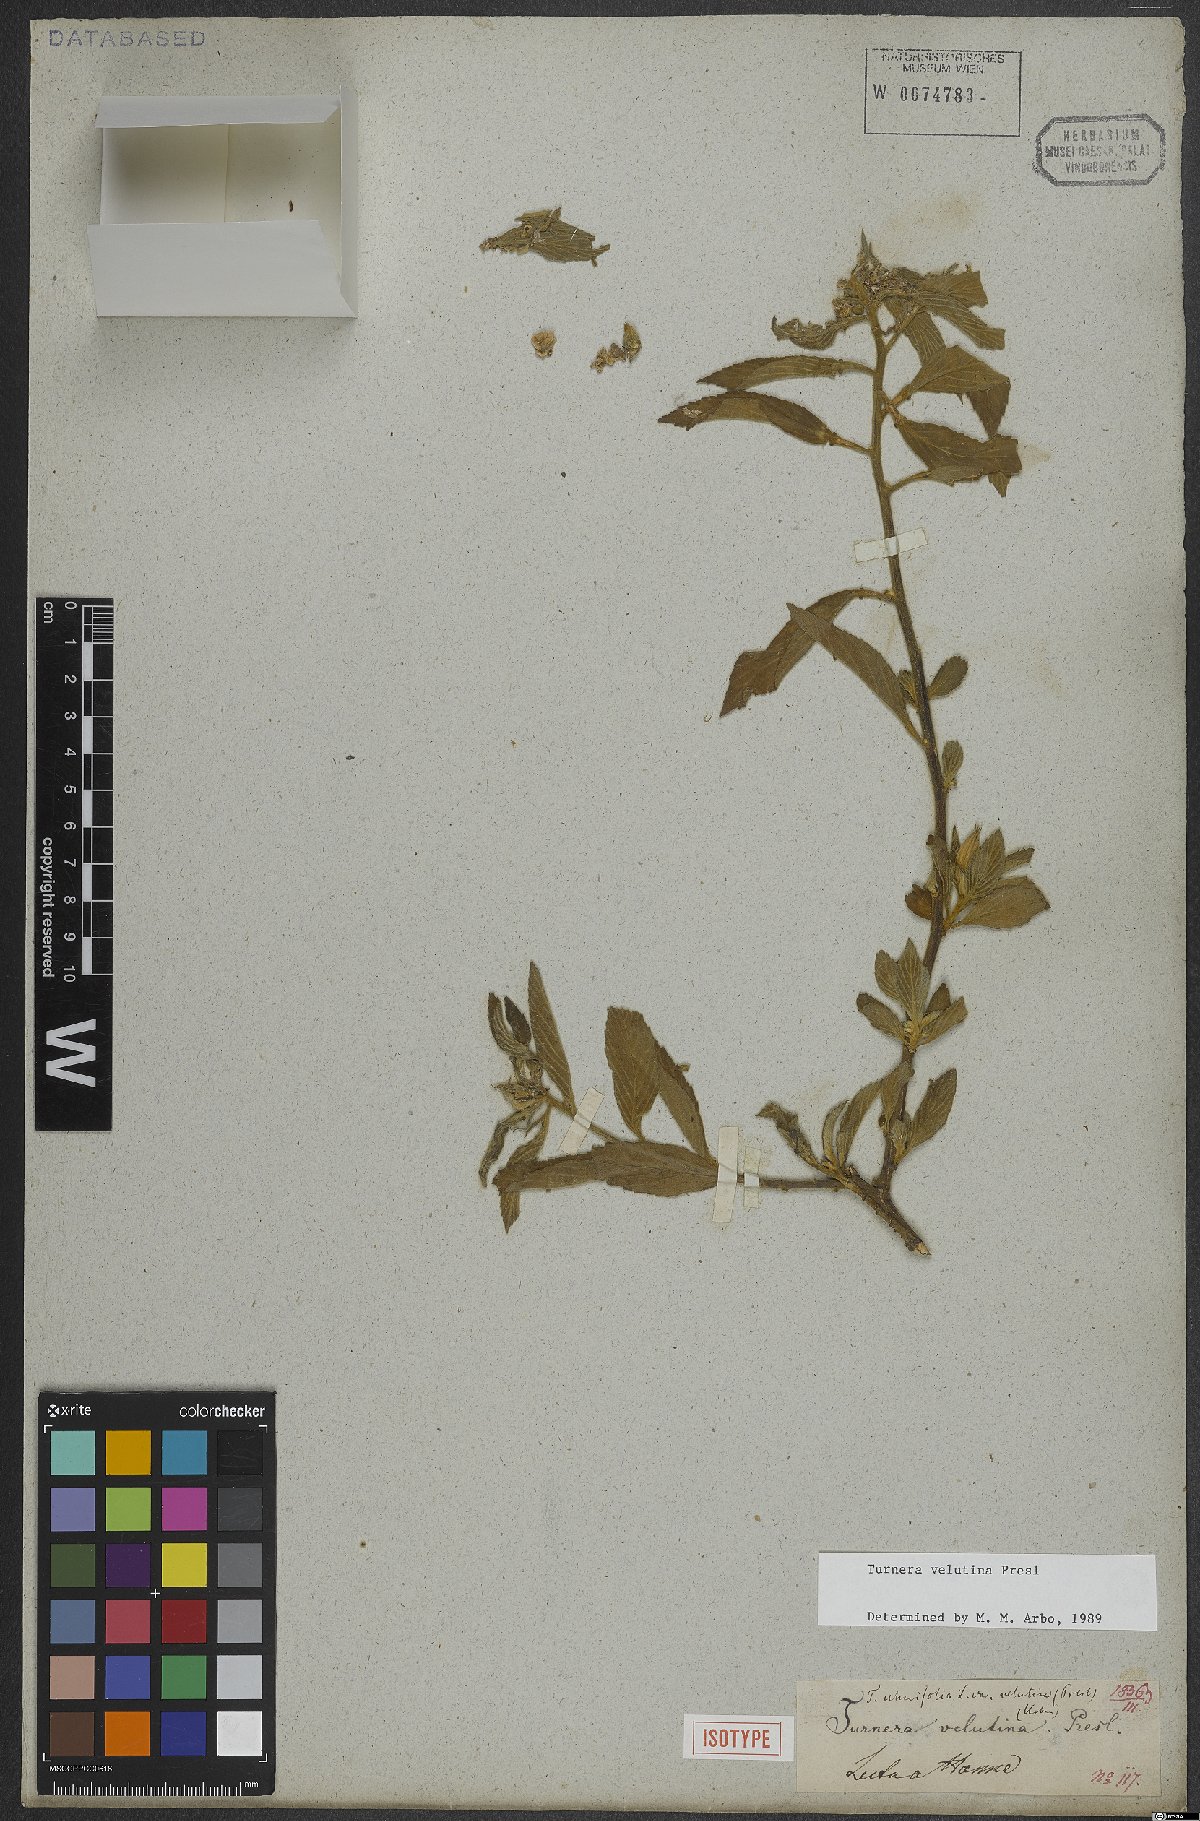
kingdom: Plantae
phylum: Tracheophyta
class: Magnoliopsida
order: Malpighiales
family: Turneraceae
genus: Turnera
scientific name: Turnera velutina
